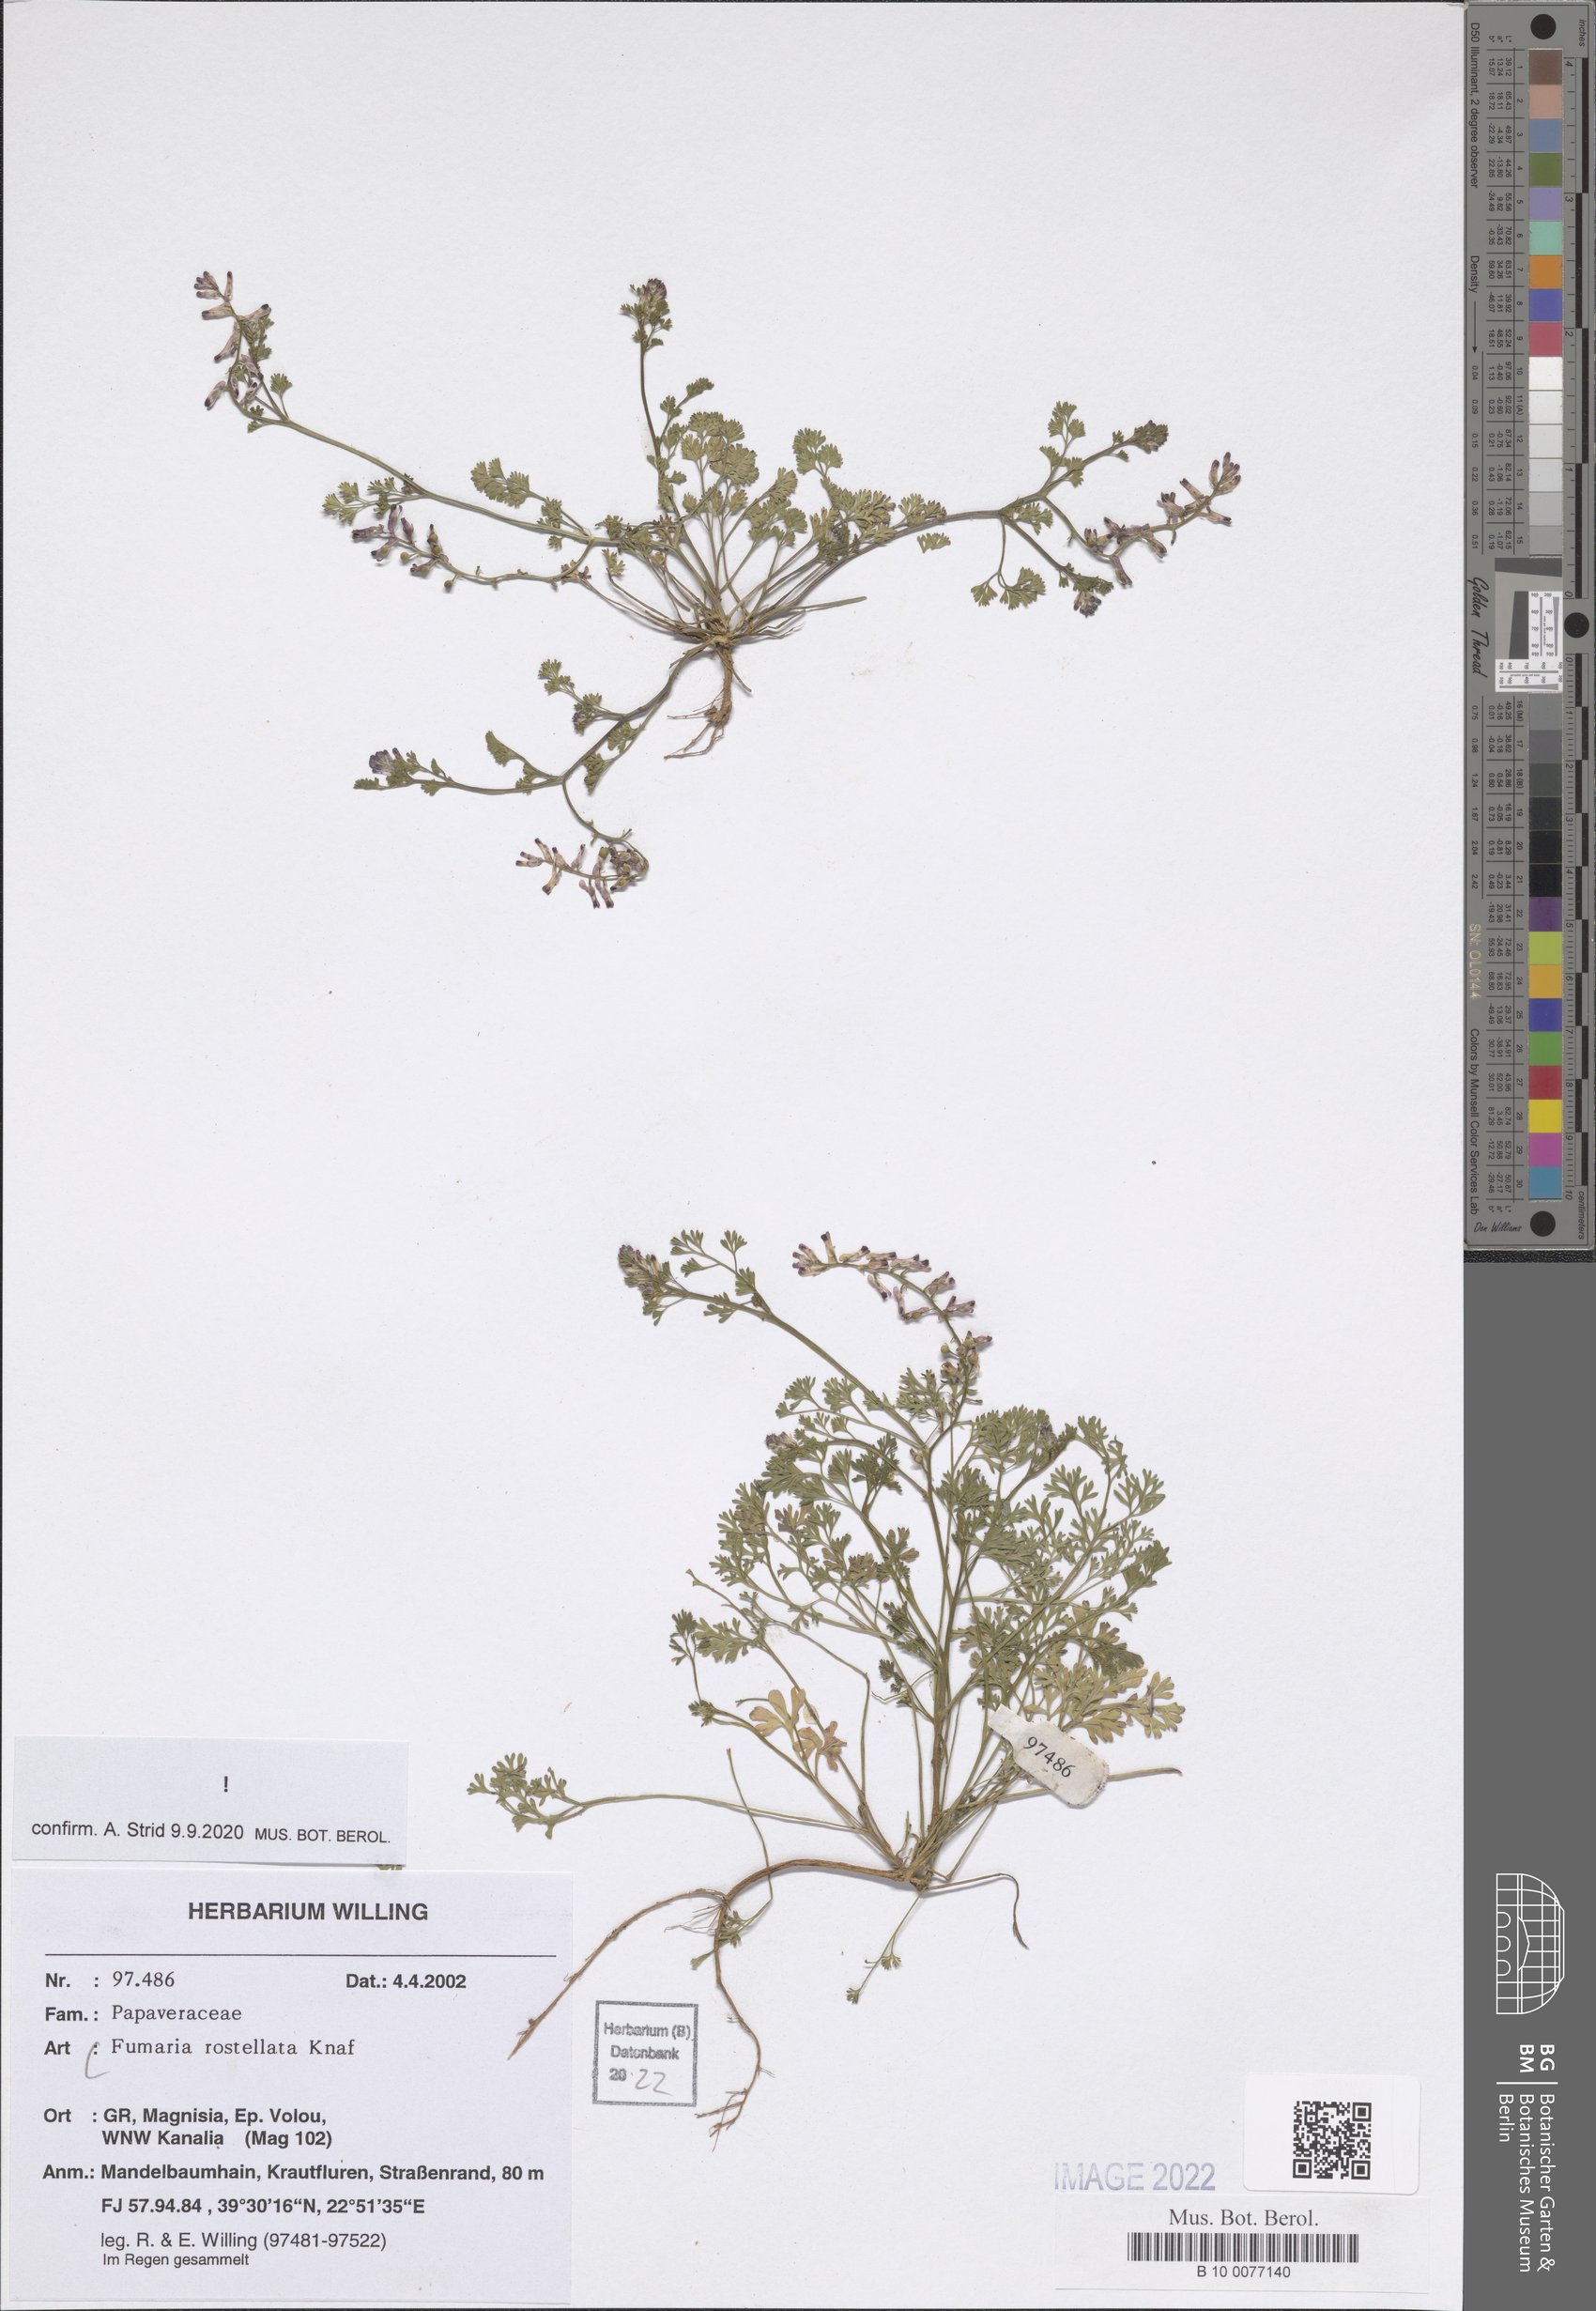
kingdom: Plantae
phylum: Tracheophyta
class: Magnoliopsida
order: Ranunculales
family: Papaveraceae
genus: Fumaria
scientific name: Fumaria rostellata
